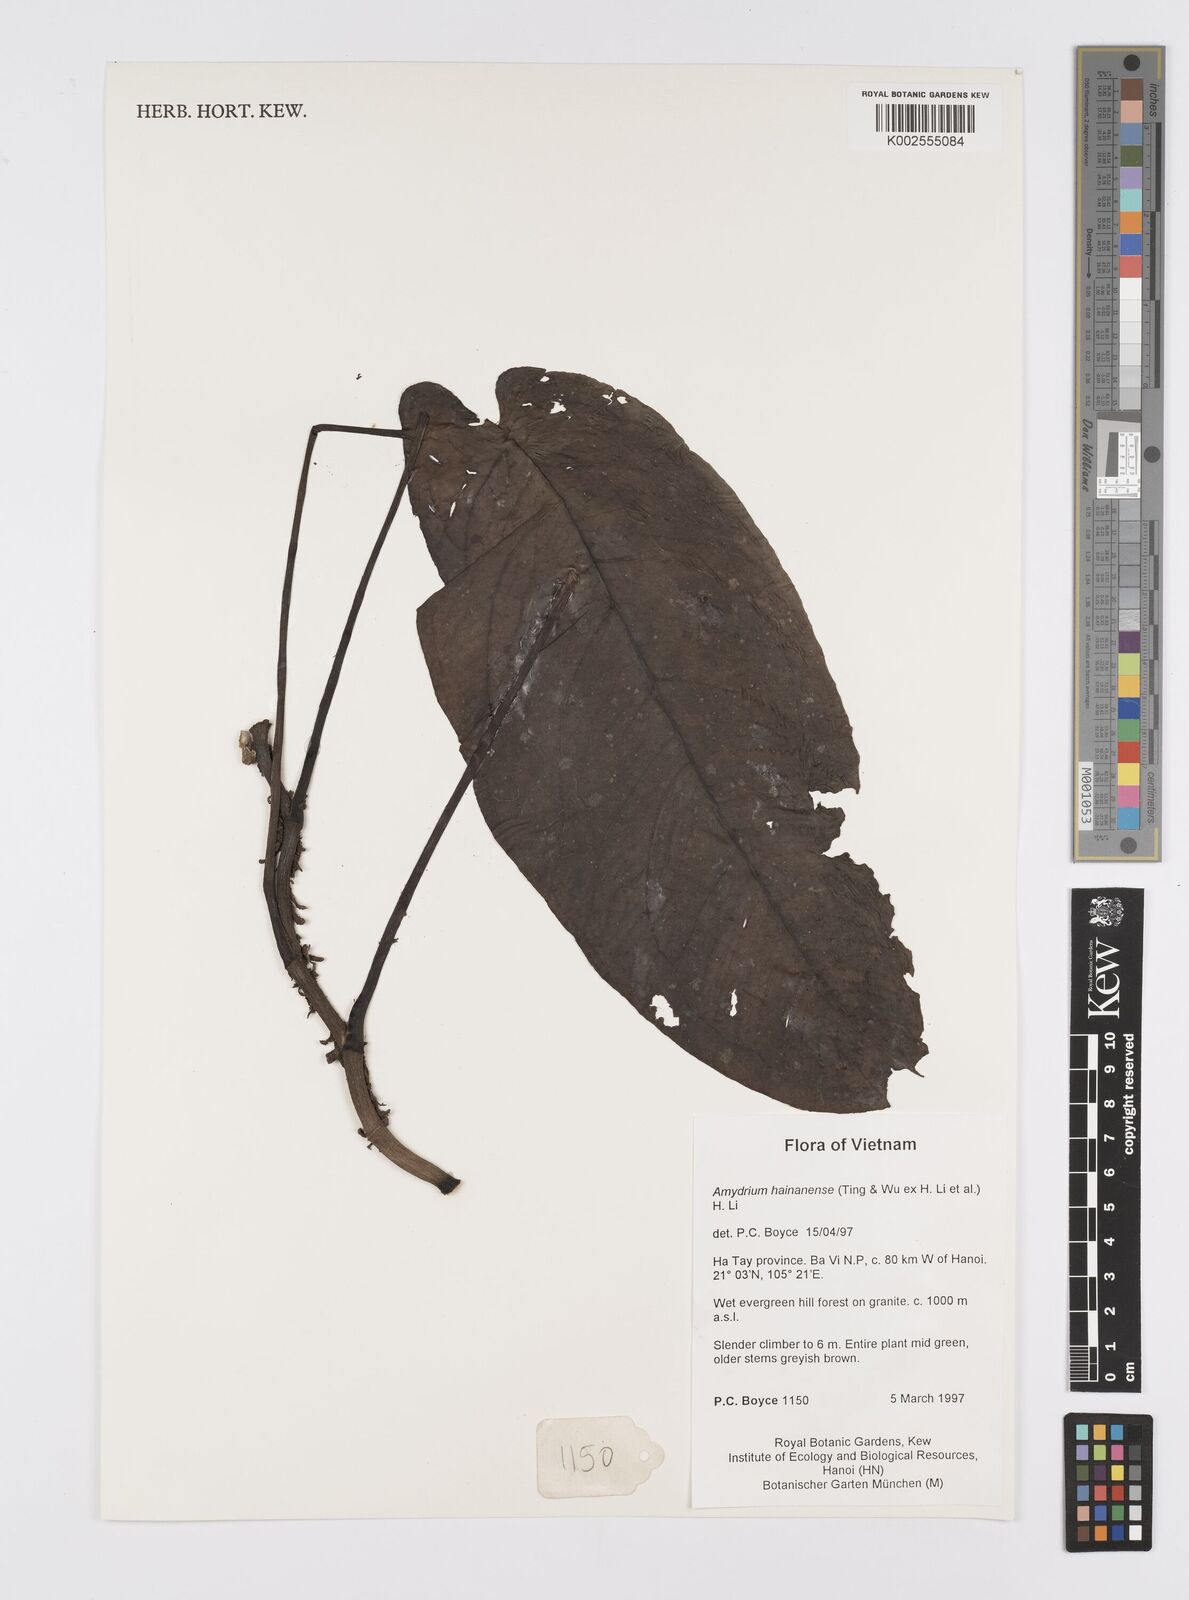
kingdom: Plantae
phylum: Tracheophyta
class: Liliopsida
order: Alismatales
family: Araceae
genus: Amydrium
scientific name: Amydrium hainanense
